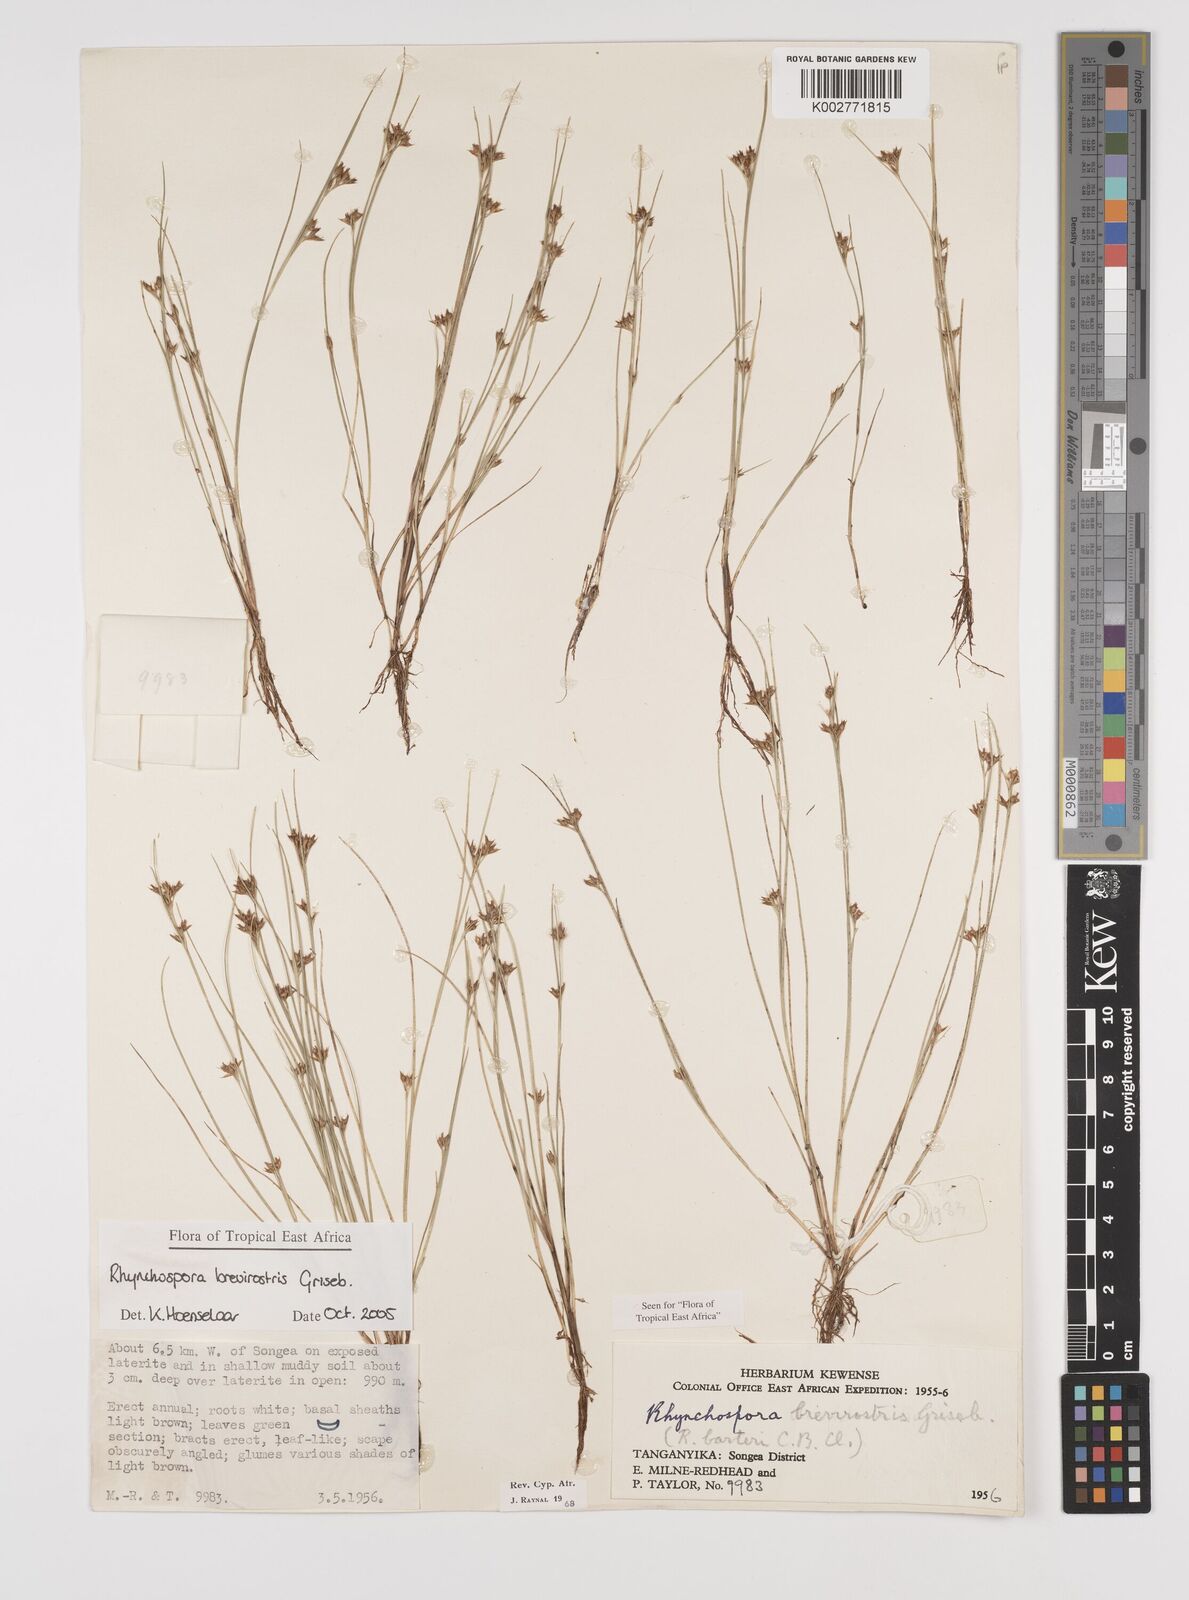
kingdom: Plantae
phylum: Tracheophyta
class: Liliopsida
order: Poales
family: Cyperaceae
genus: Rhynchospora
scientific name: Rhynchospora brevirostris
